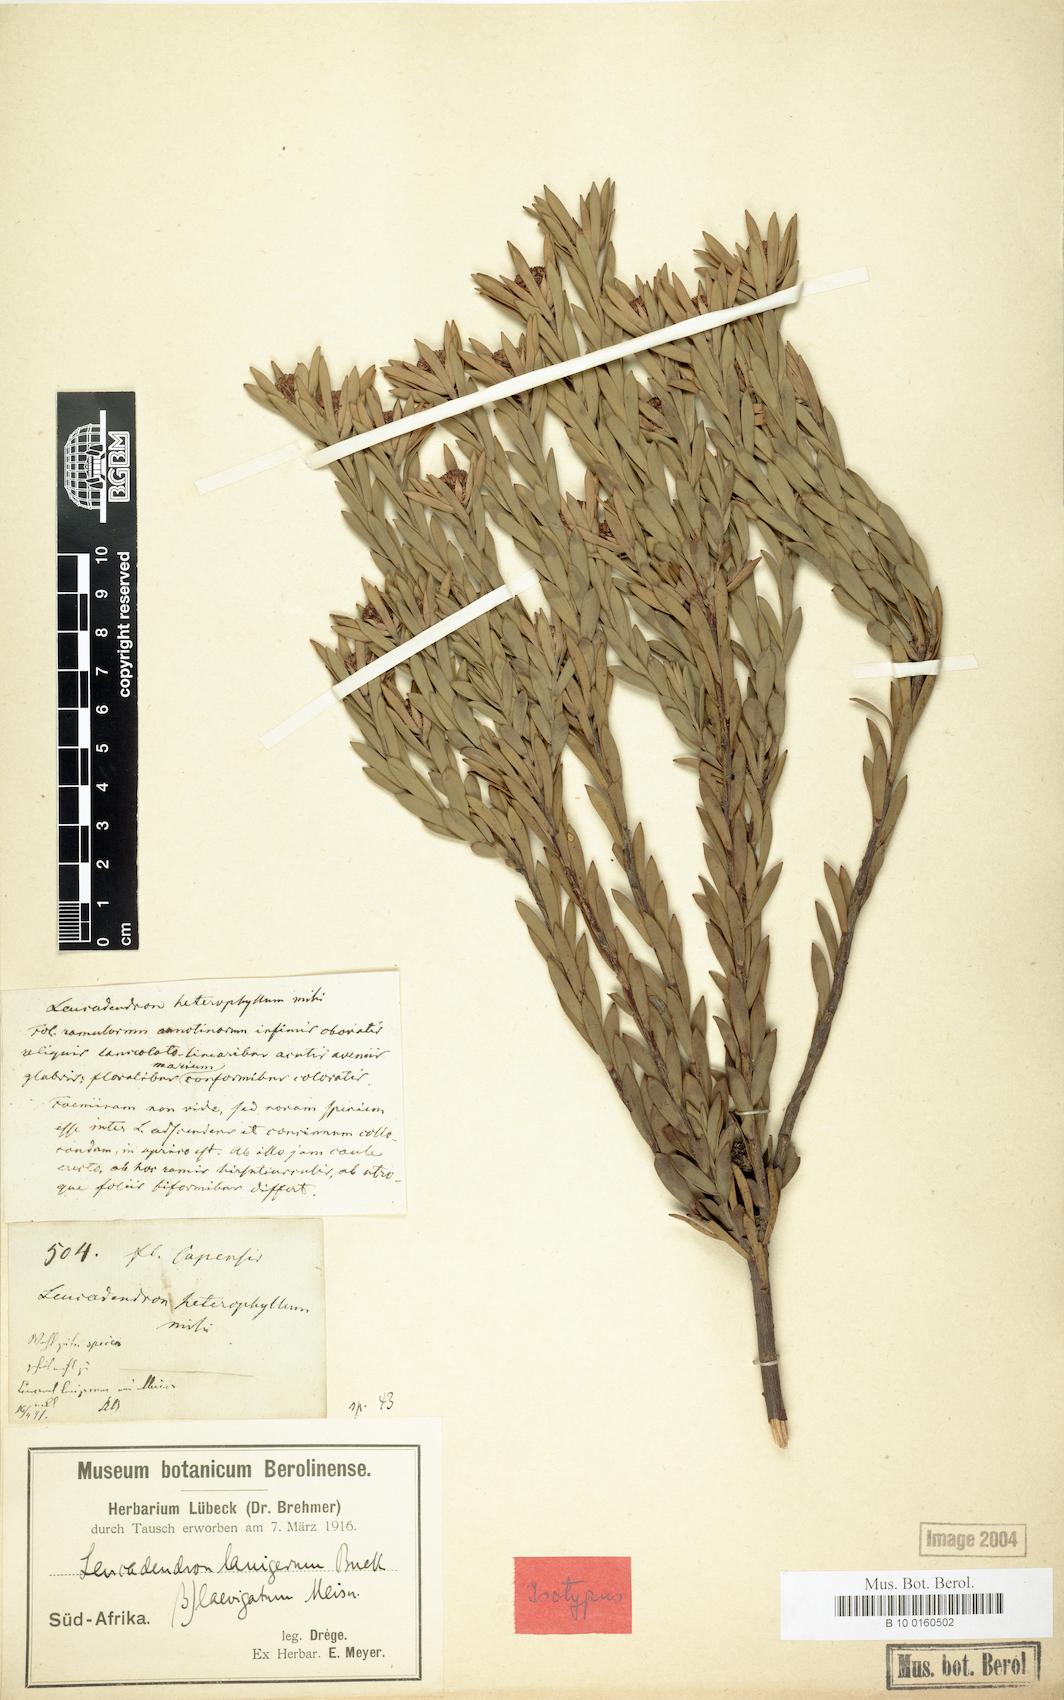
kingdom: Plantae
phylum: Tracheophyta
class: Magnoliopsida
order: Proteales
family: Proteaceae
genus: Leucadendron
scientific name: Leucadendron lanigerum
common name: Shale conebush
